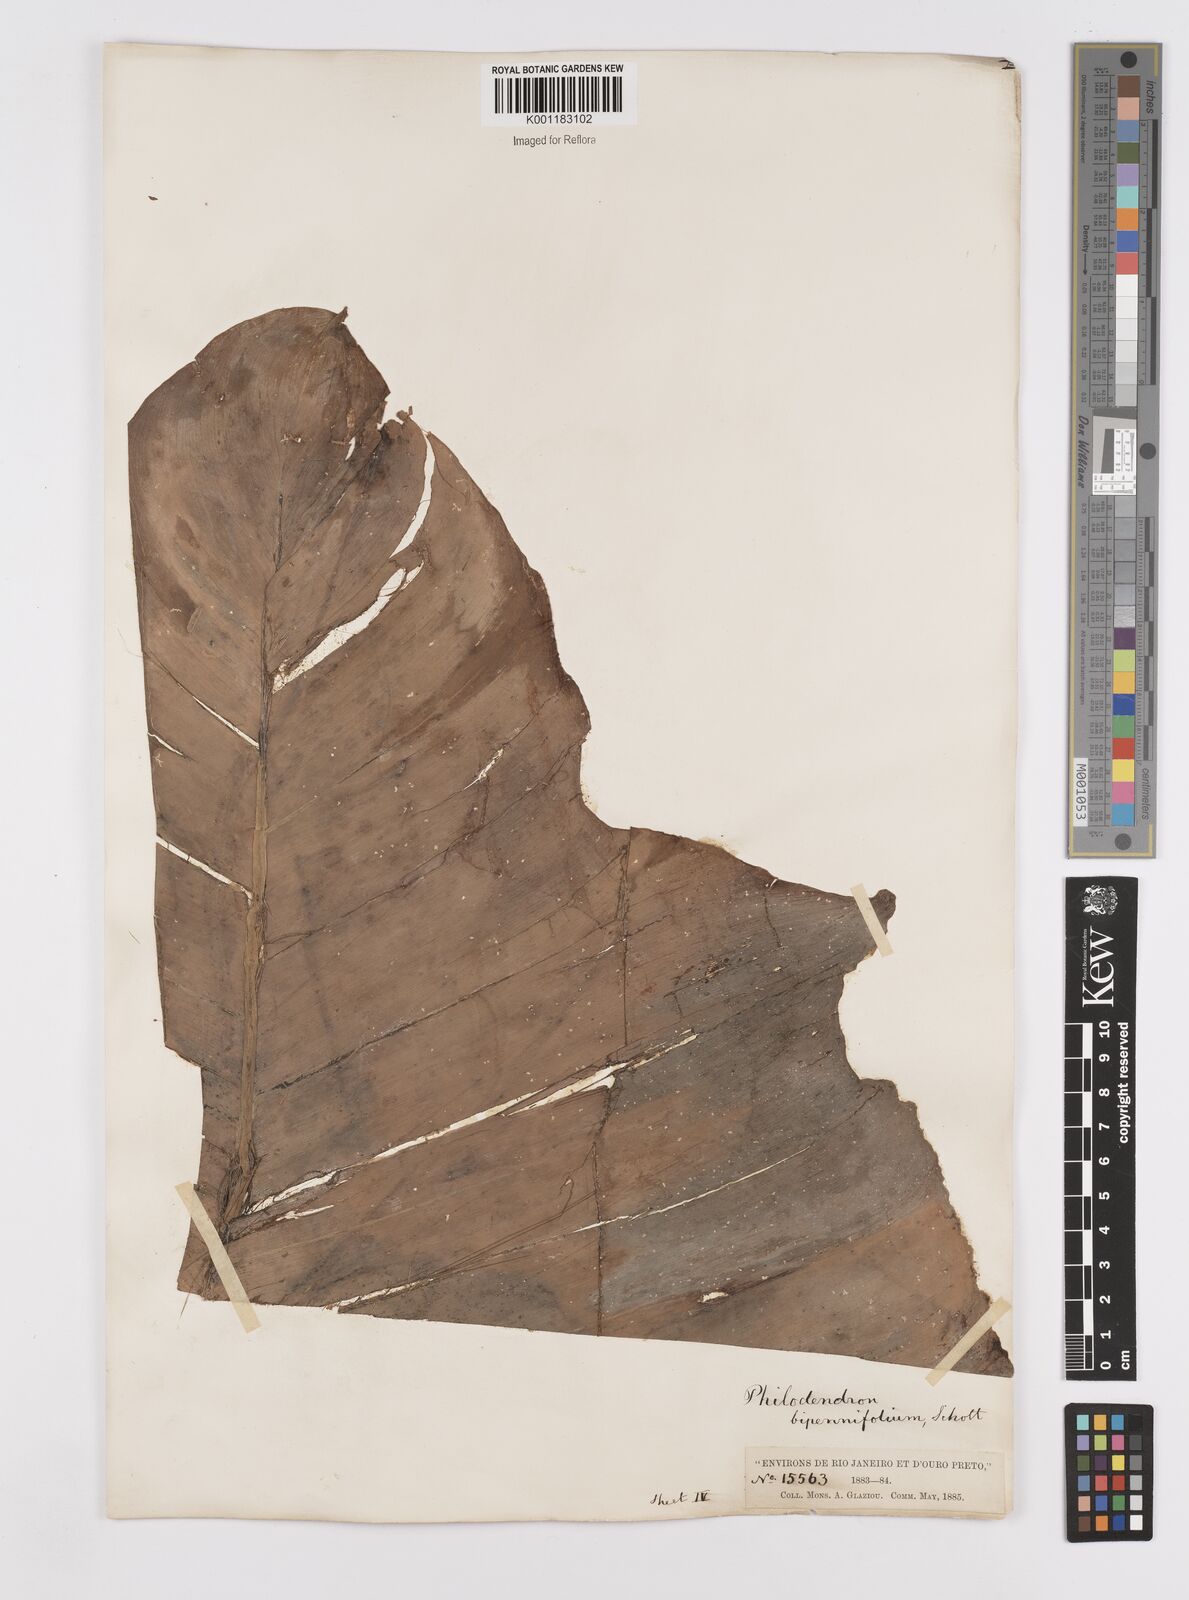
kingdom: Plantae
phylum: Tracheophyta
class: Liliopsida
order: Alismatales
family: Araceae
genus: Philodendron
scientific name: Philodendron bipennifolium
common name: Fiddle-leaf philodendron
